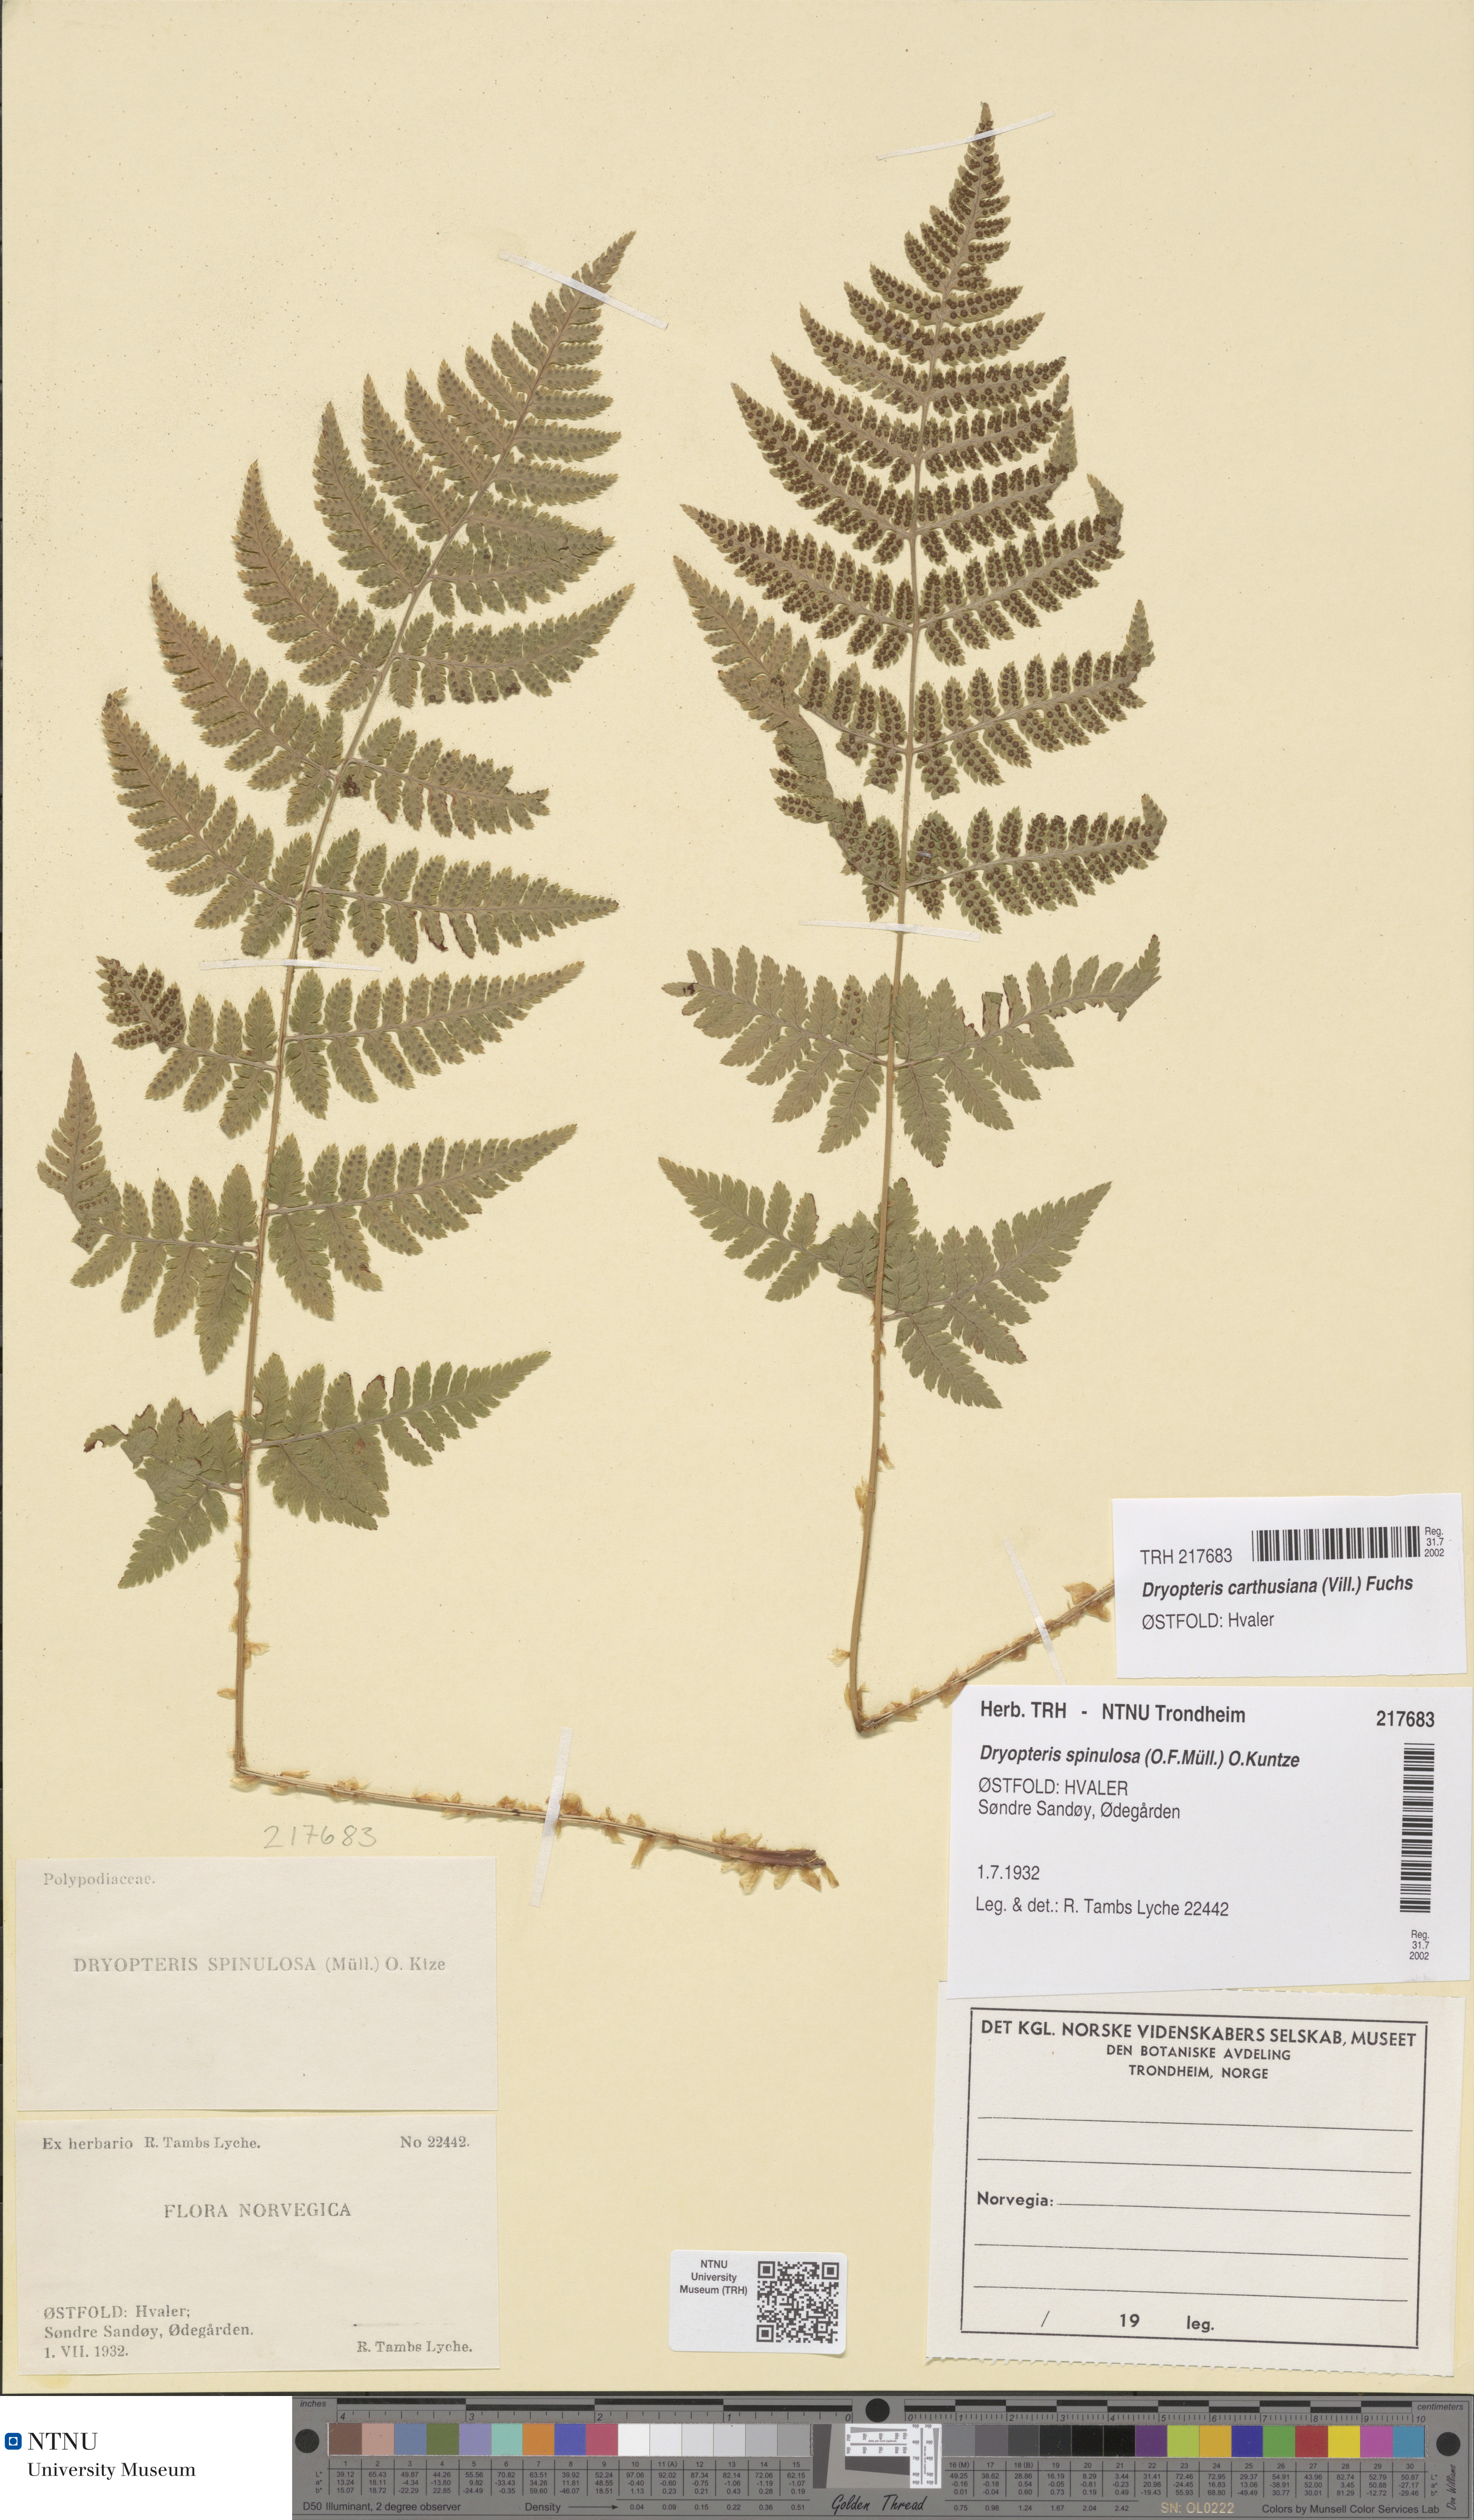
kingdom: Plantae
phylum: Tracheophyta
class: Polypodiopsida
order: Polypodiales
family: Dryopteridaceae
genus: Dryopteris
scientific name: Dryopteris carthusiana
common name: Narrow buckler-fern
